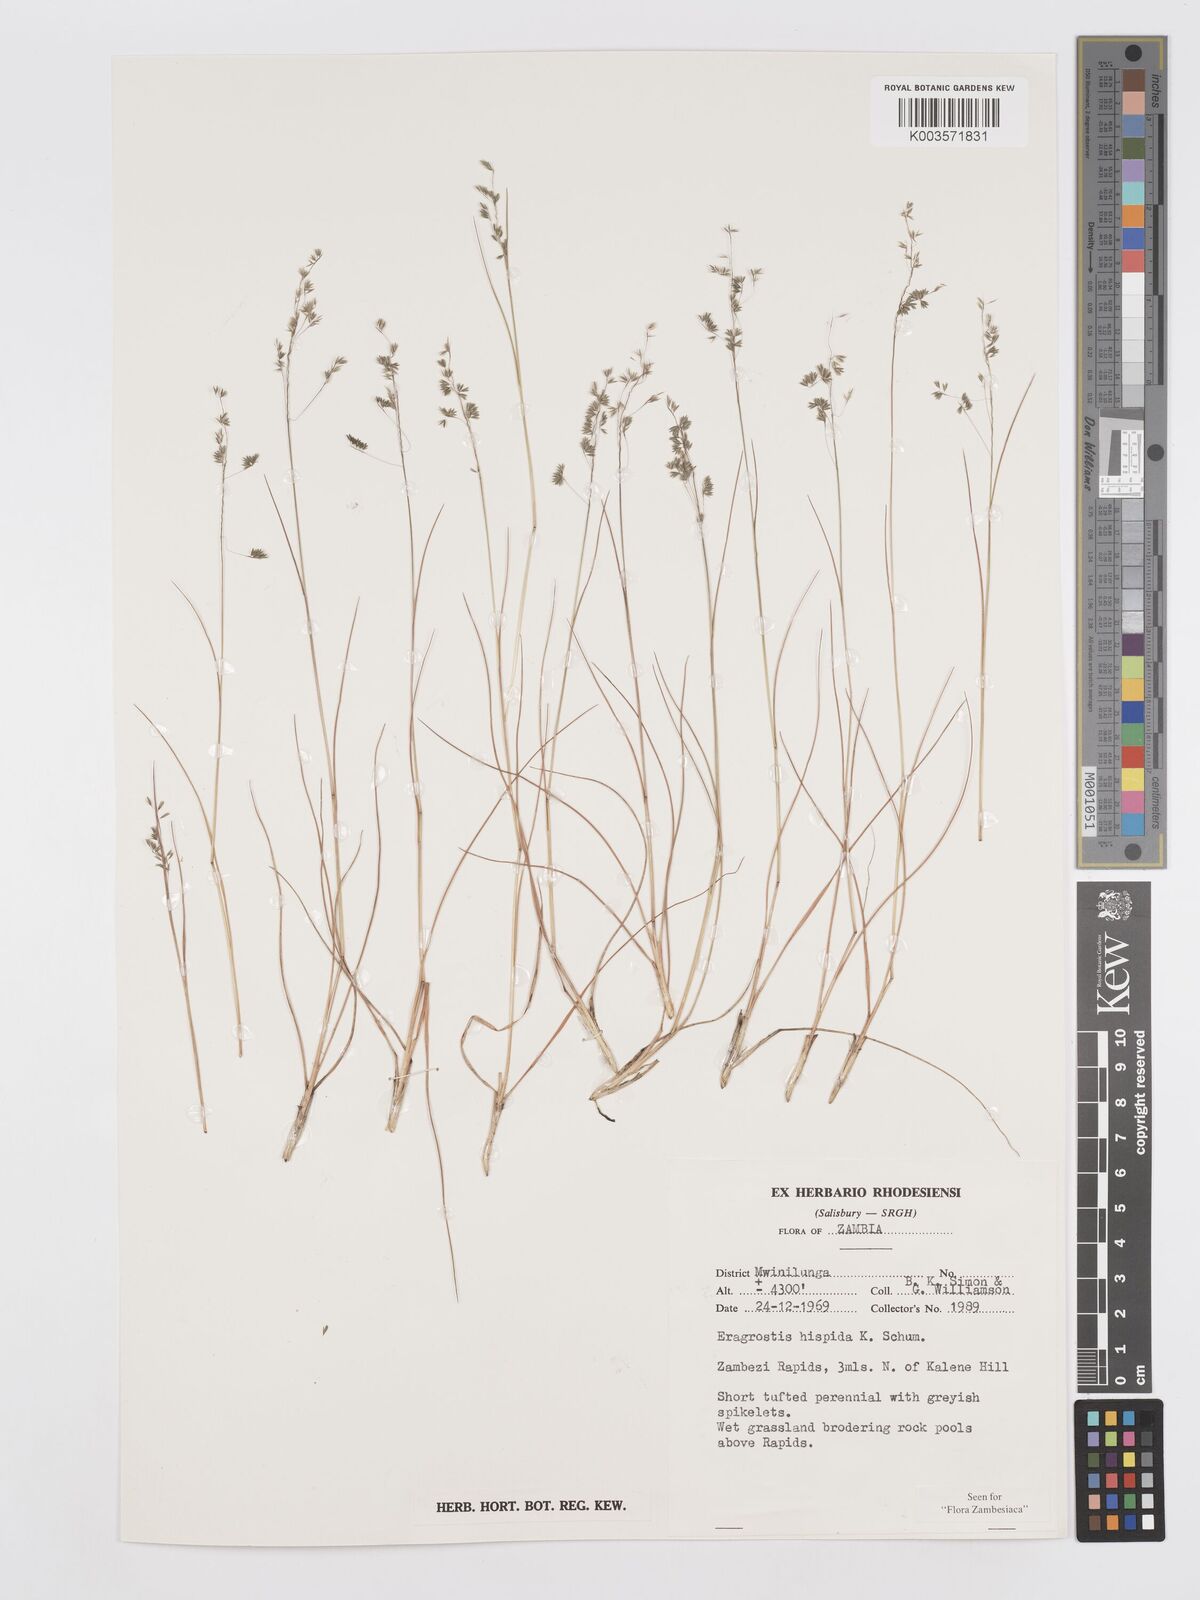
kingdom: Plantae
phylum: Tracheophyta
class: Liliopsida
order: Poales
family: Poaceae
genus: Eragrostis
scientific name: Eragrostis hispida
